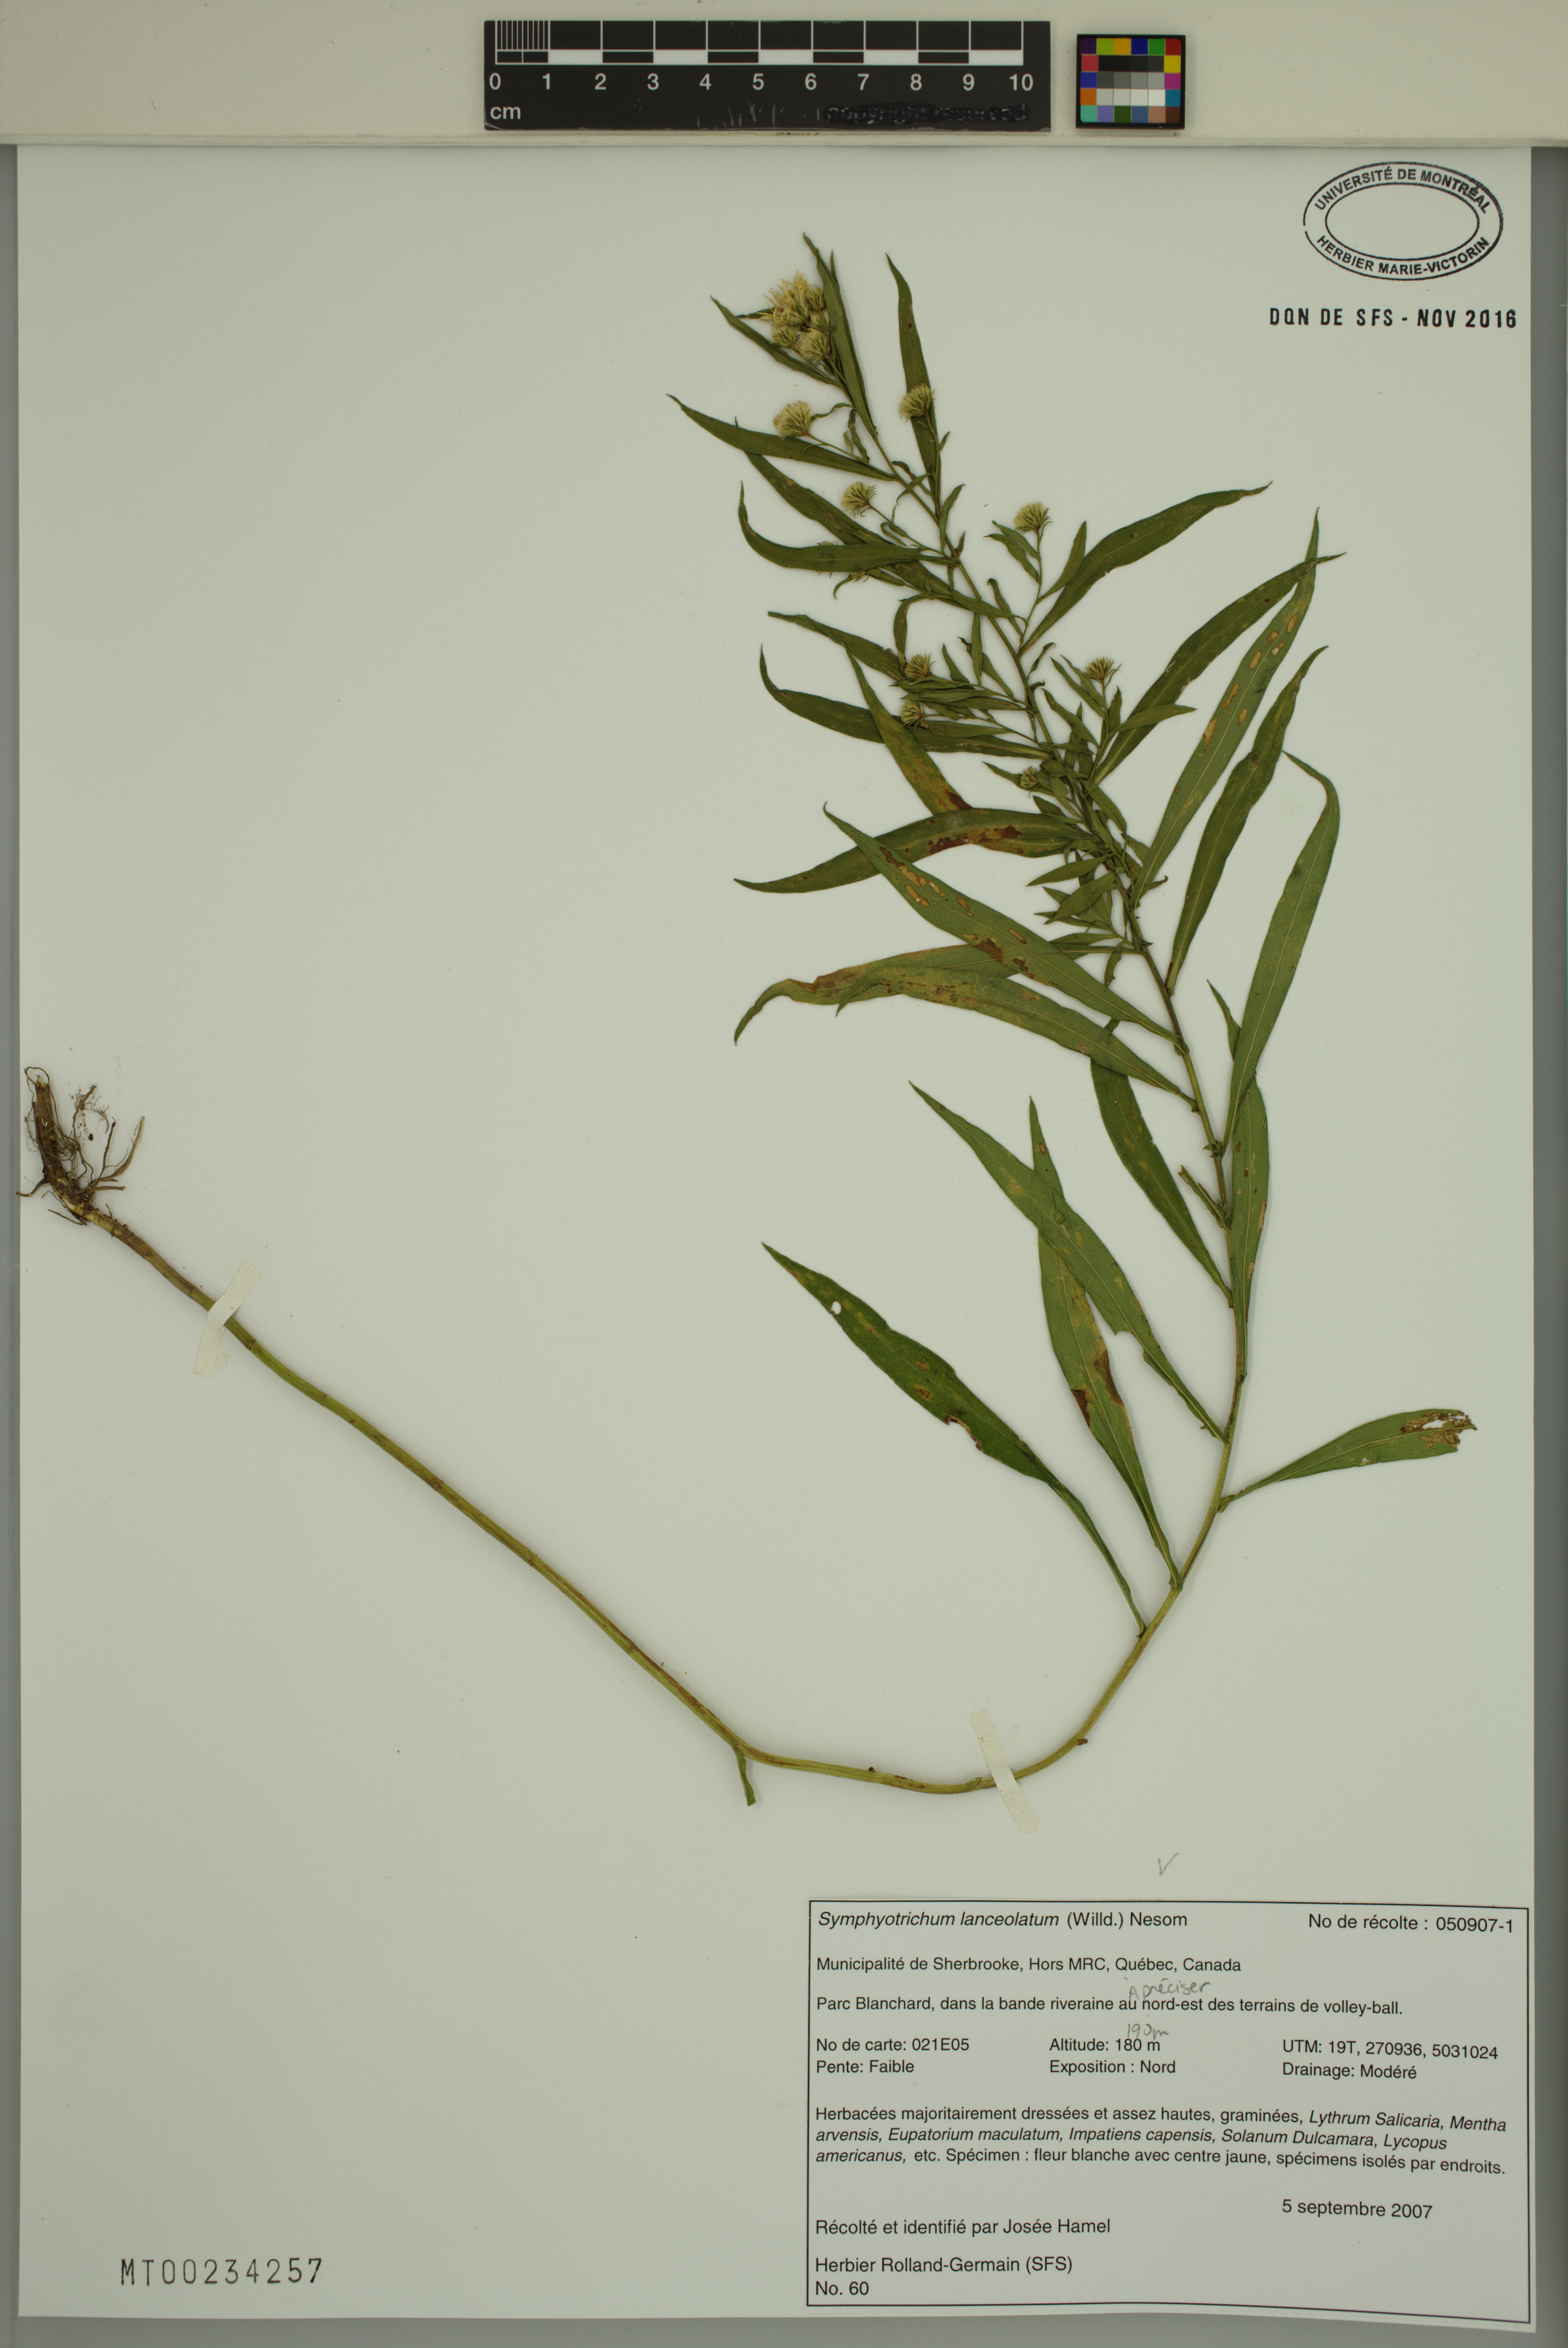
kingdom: Plantae
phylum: Tracheophyta
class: Magnoliopsida
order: Asterales
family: Asteraceae
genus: Symphyotrichum
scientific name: Symphyotrichum lanceolatum
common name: Panicled aster
